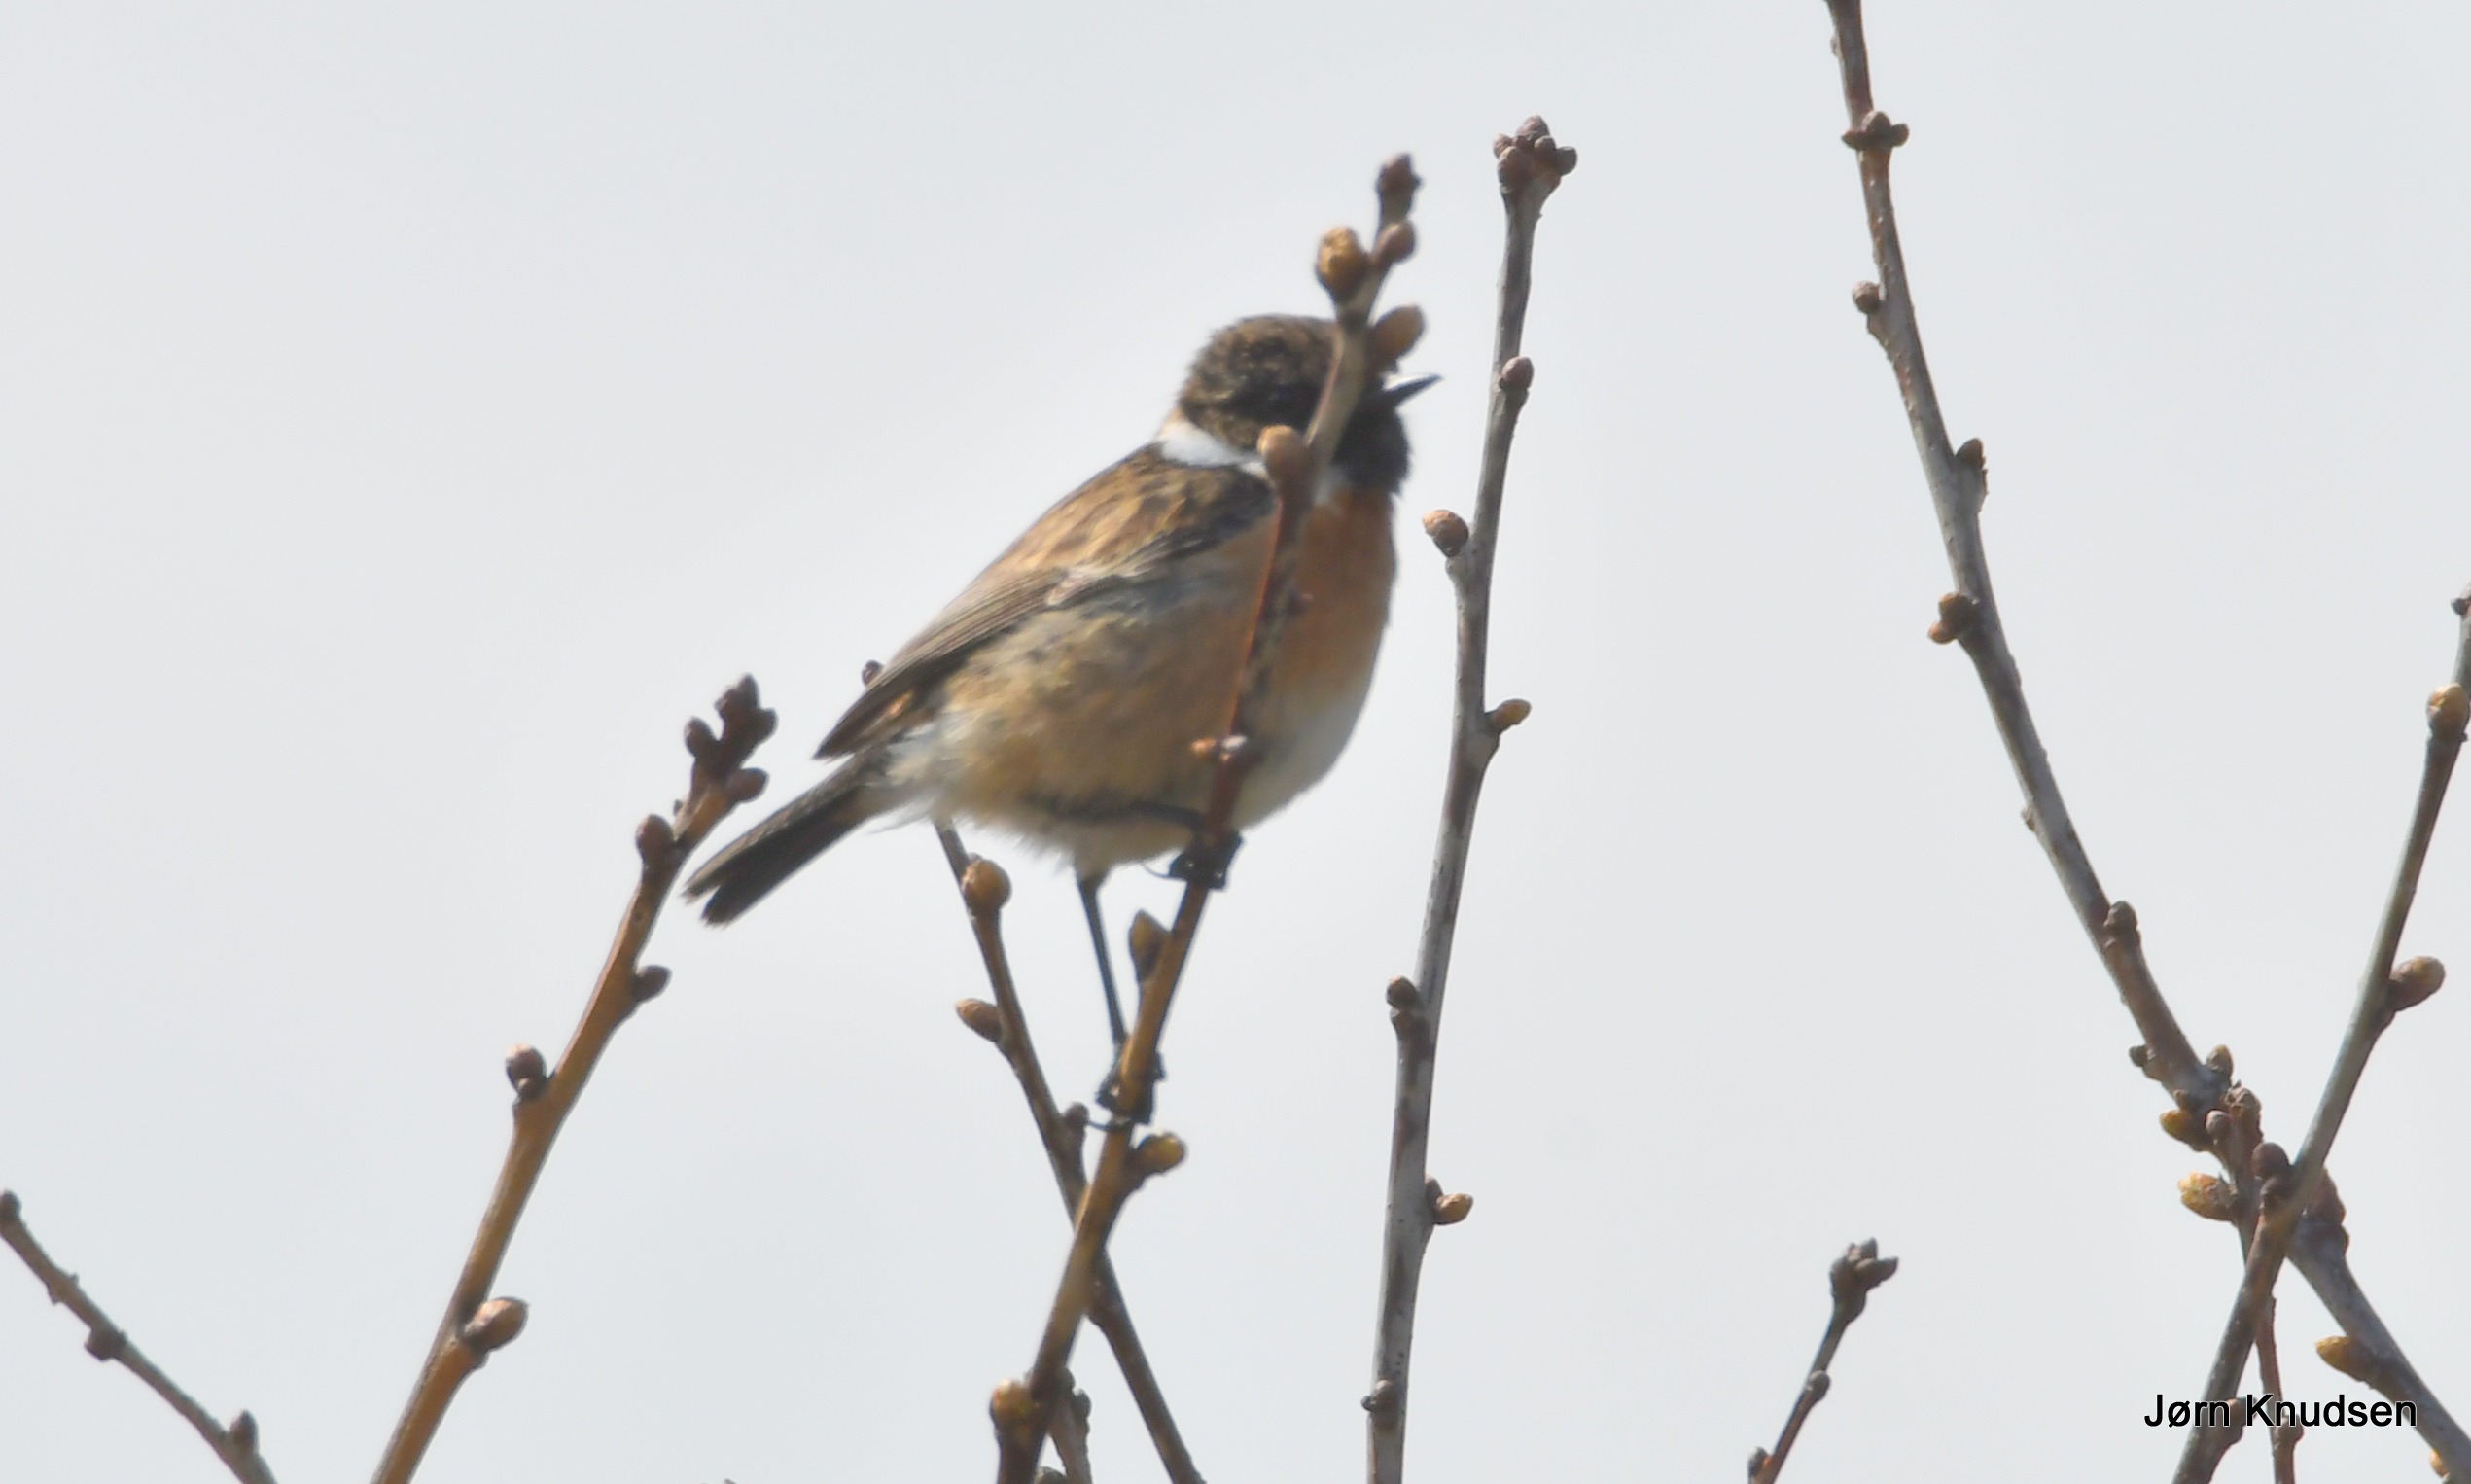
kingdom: Animalia
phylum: Chordata
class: Aves
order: Passeriformes
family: Muscicapidae
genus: Saxicola
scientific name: Saxicola rubicola
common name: Sortstrubet bynkefugl
